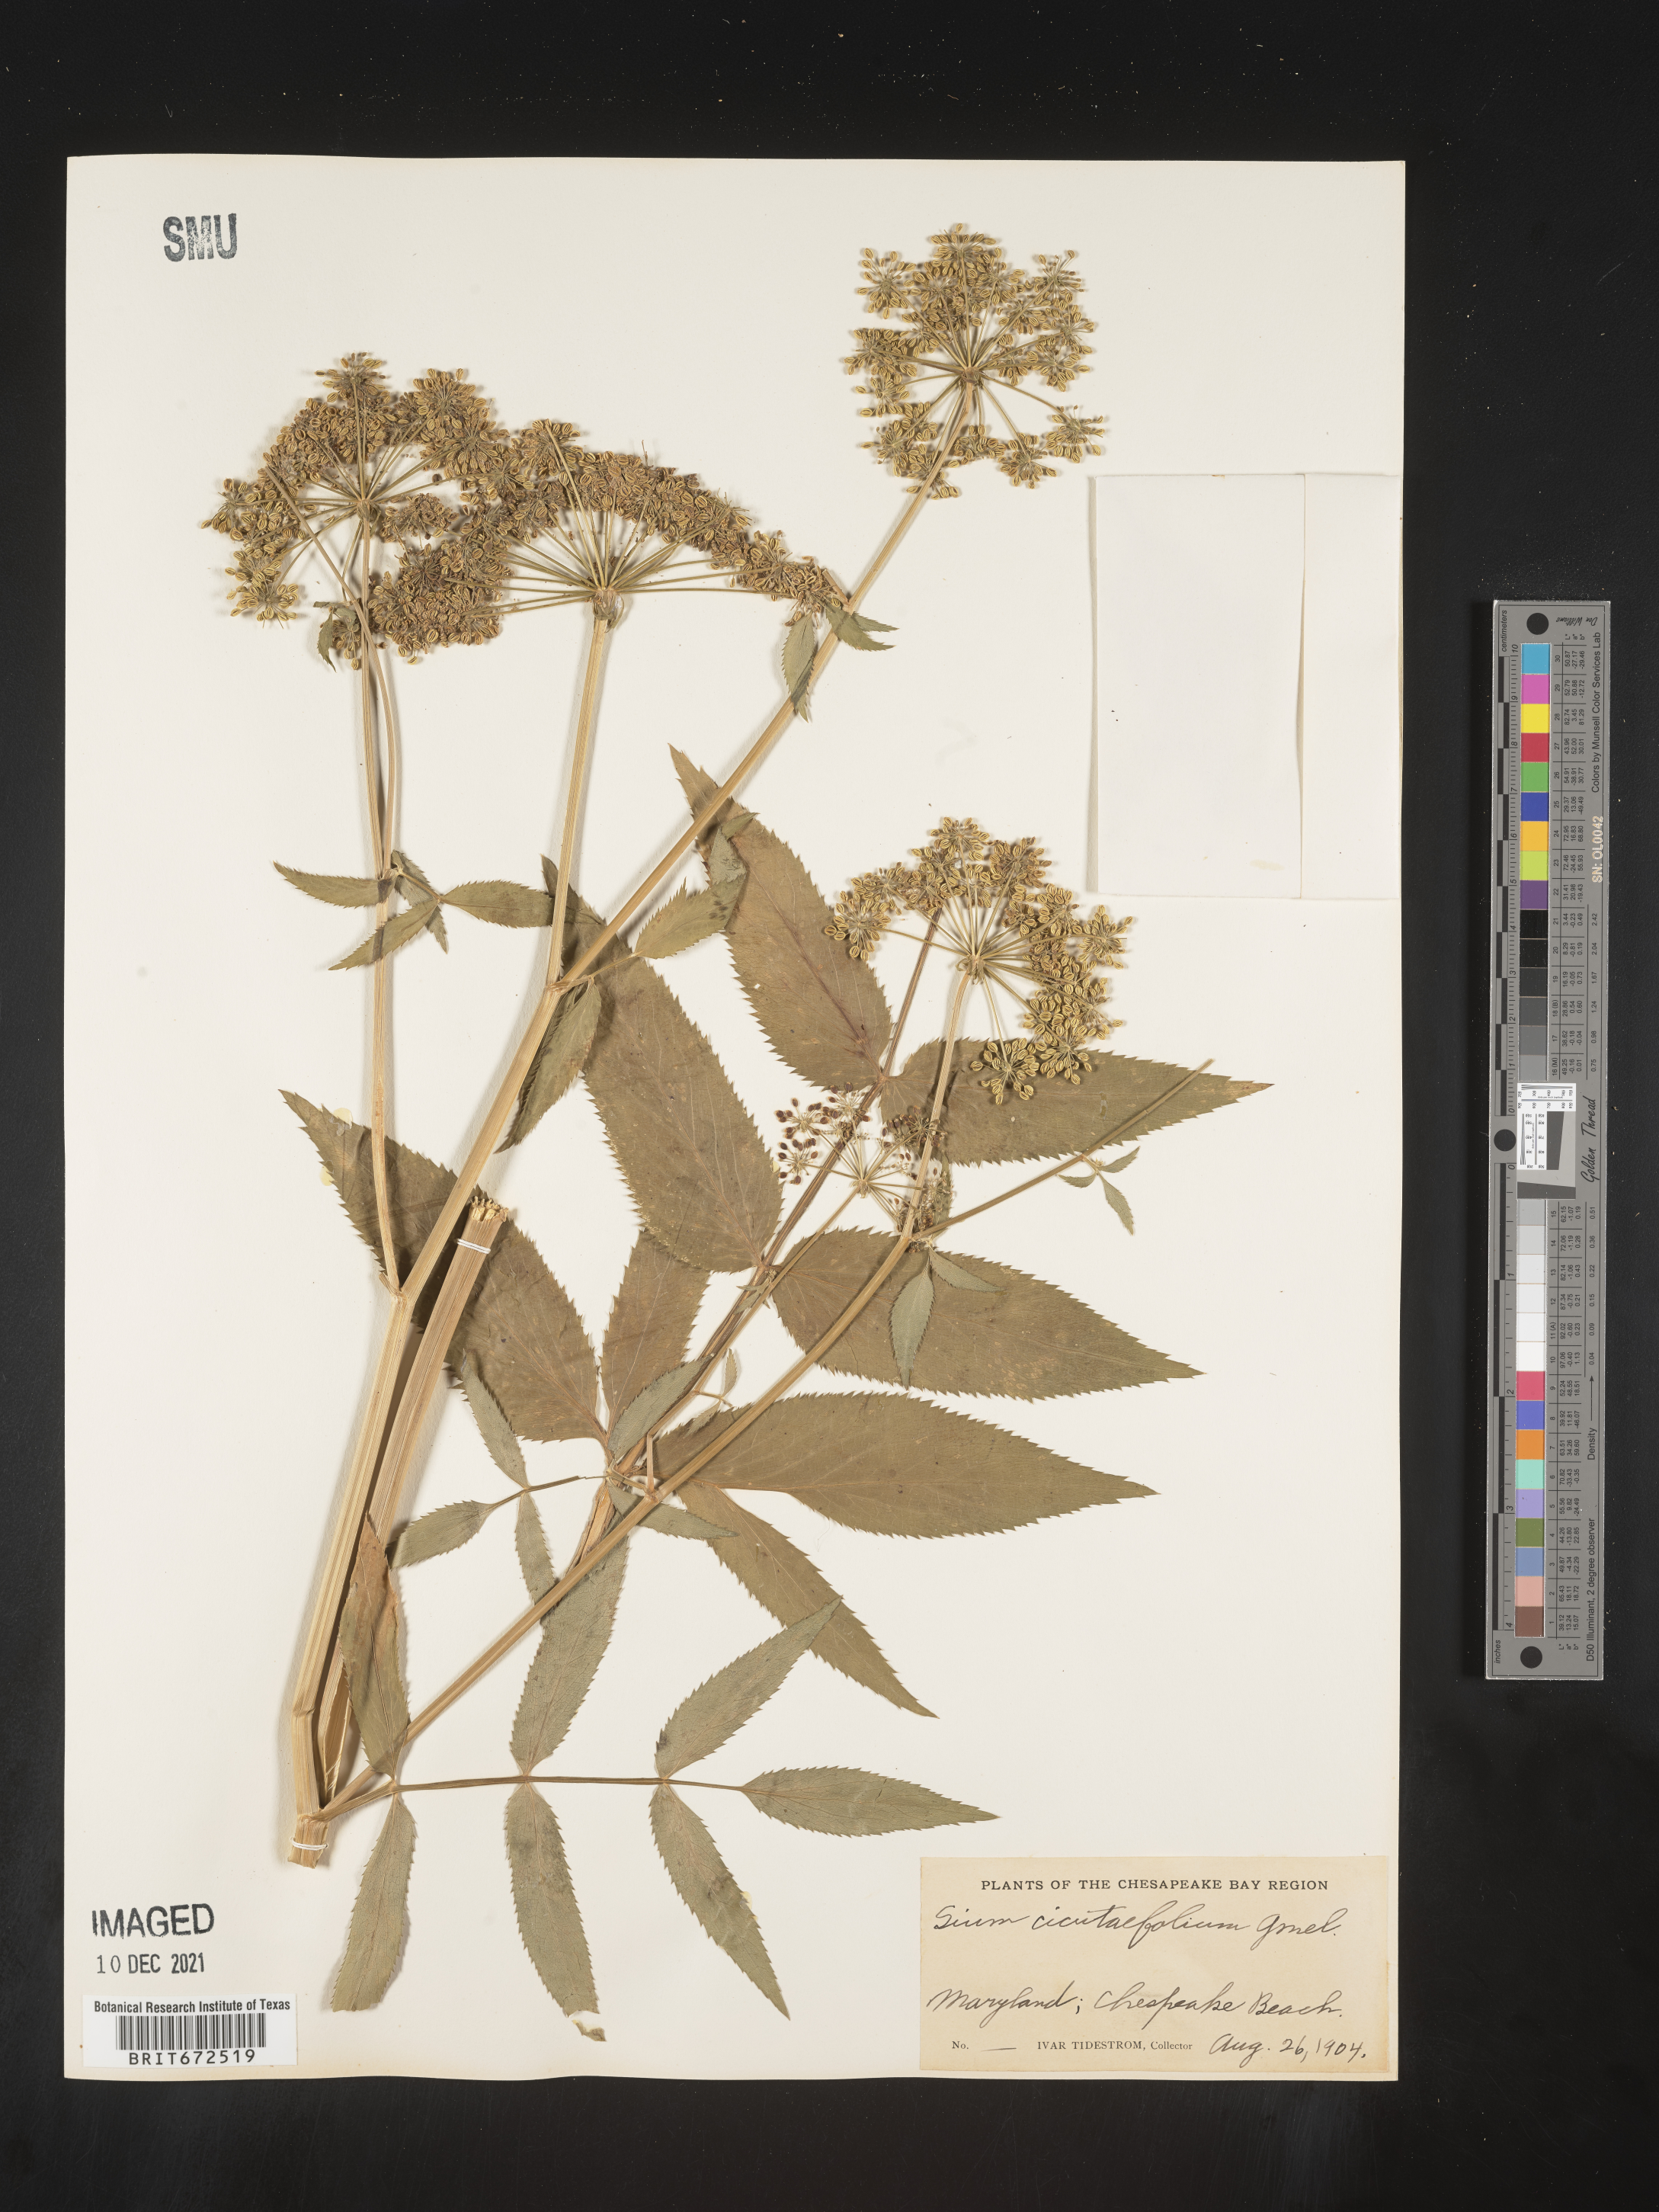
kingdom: Plantae
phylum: Tracheophyta
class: Magnoliopsida
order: Apiales
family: Apiaceae
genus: Sium
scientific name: Sium suave
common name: Hemlock water-parsnip
